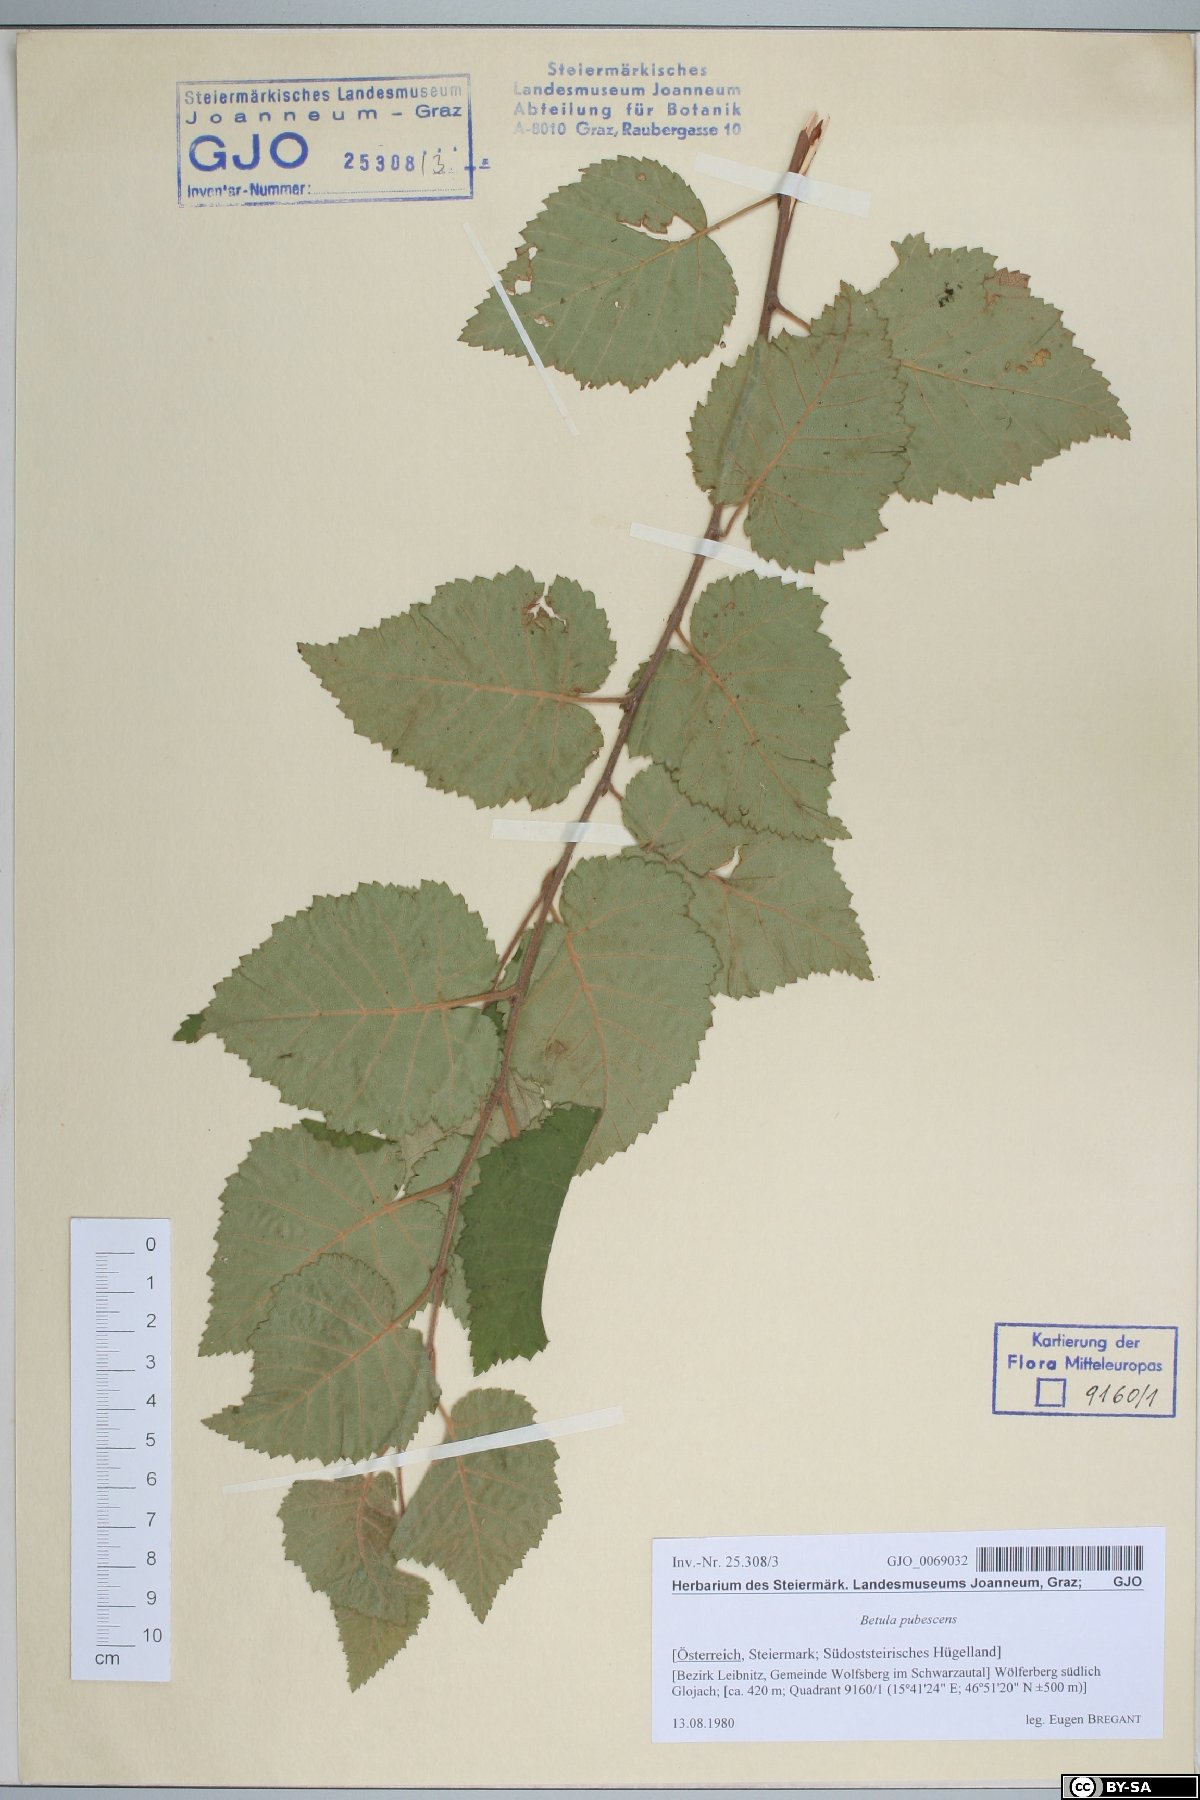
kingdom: Plantae
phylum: Tracheophyta
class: Magnoliopsida
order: Fagales
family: Betulaceae
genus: Betula
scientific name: Betula pubescens
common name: Downy birch
